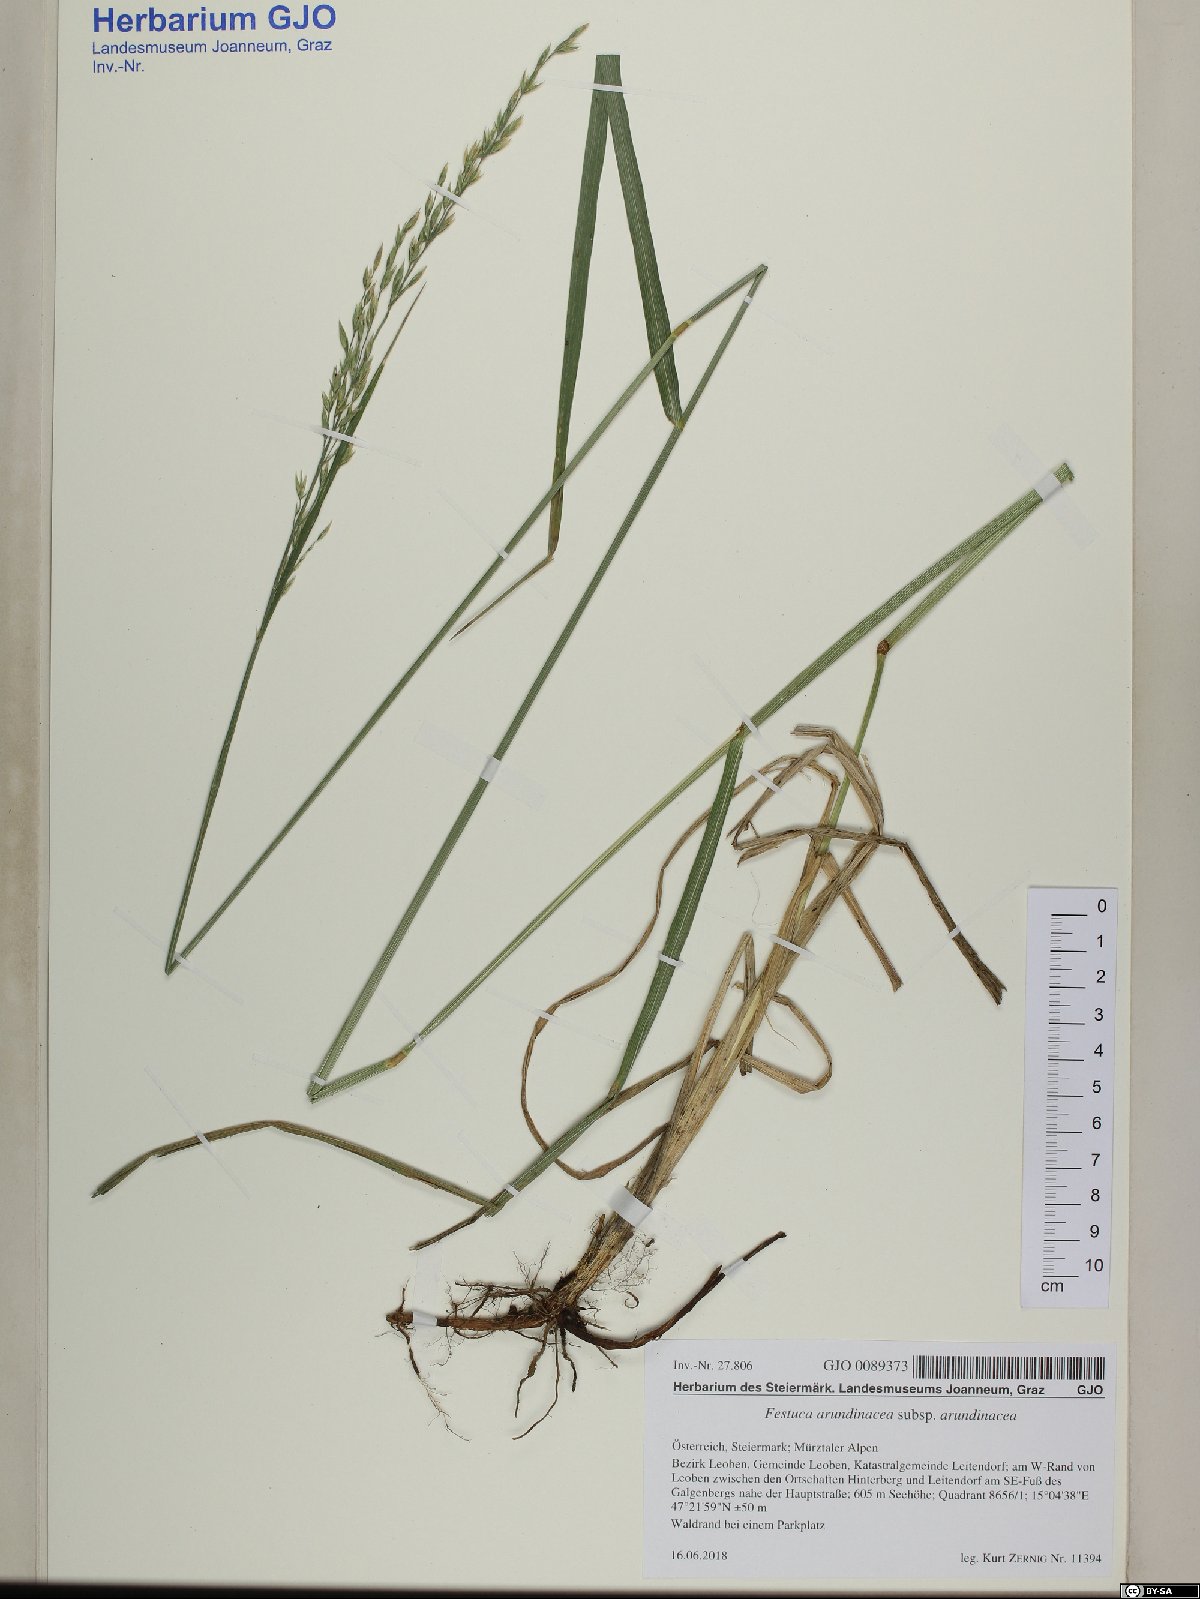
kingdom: Plantae
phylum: Tracheophyta
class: Liliopsida
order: Poales
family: Poaceae
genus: Lolium
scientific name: Lolium arundinaceum
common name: Reed fescue
